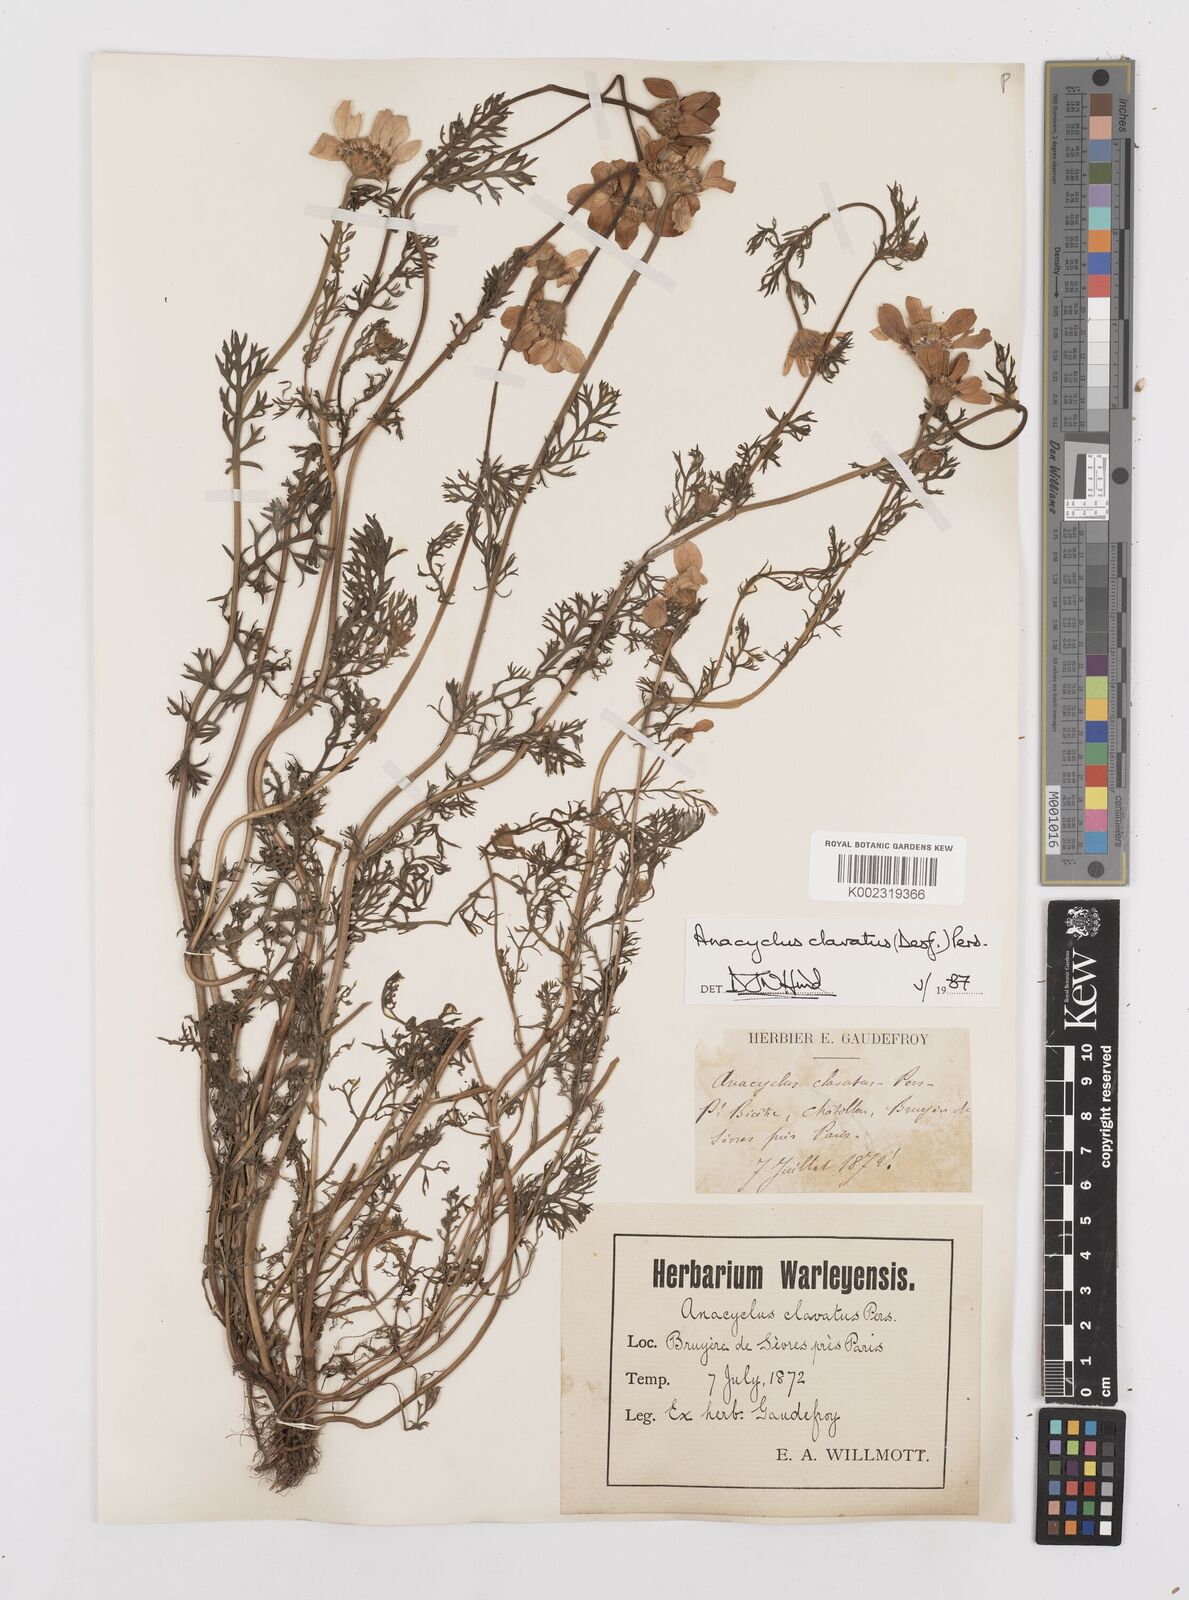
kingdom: Plantae
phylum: Tracheophyta
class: Magnoliopsida
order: Asterales
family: Asteraceae
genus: Anacyclus
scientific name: Anacyclus clavatus
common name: Whitebuttons
